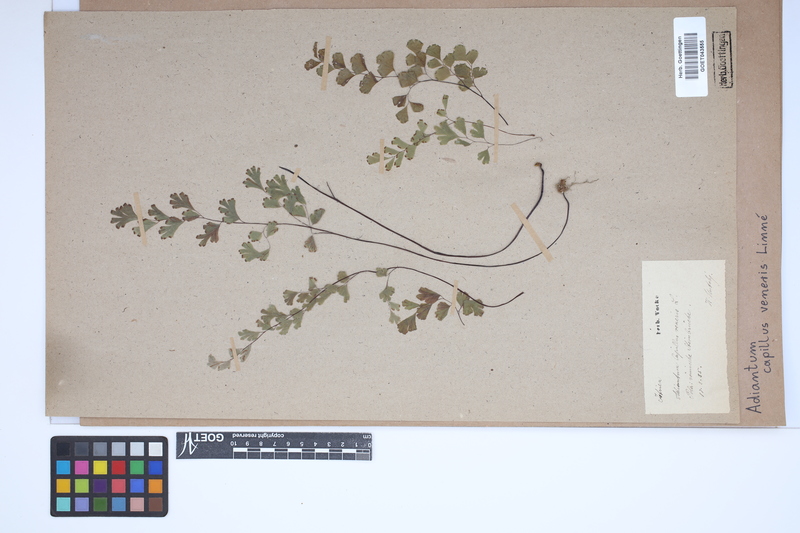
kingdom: Plantae
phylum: Tracheophyta
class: Polypodiopsida
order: Polypodiales
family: Pteridaceae
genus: Adiantum
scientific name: Adiantum capillus-veneris
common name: Maidenhair fern
